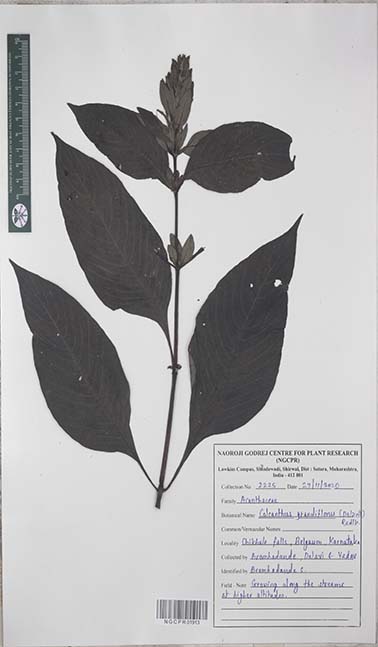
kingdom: Plantae
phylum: Tracheophyta
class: Magnoliopsida
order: Lamiales
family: Acanthaceae
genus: Calacanthus
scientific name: Calacanthus grandiflorus
